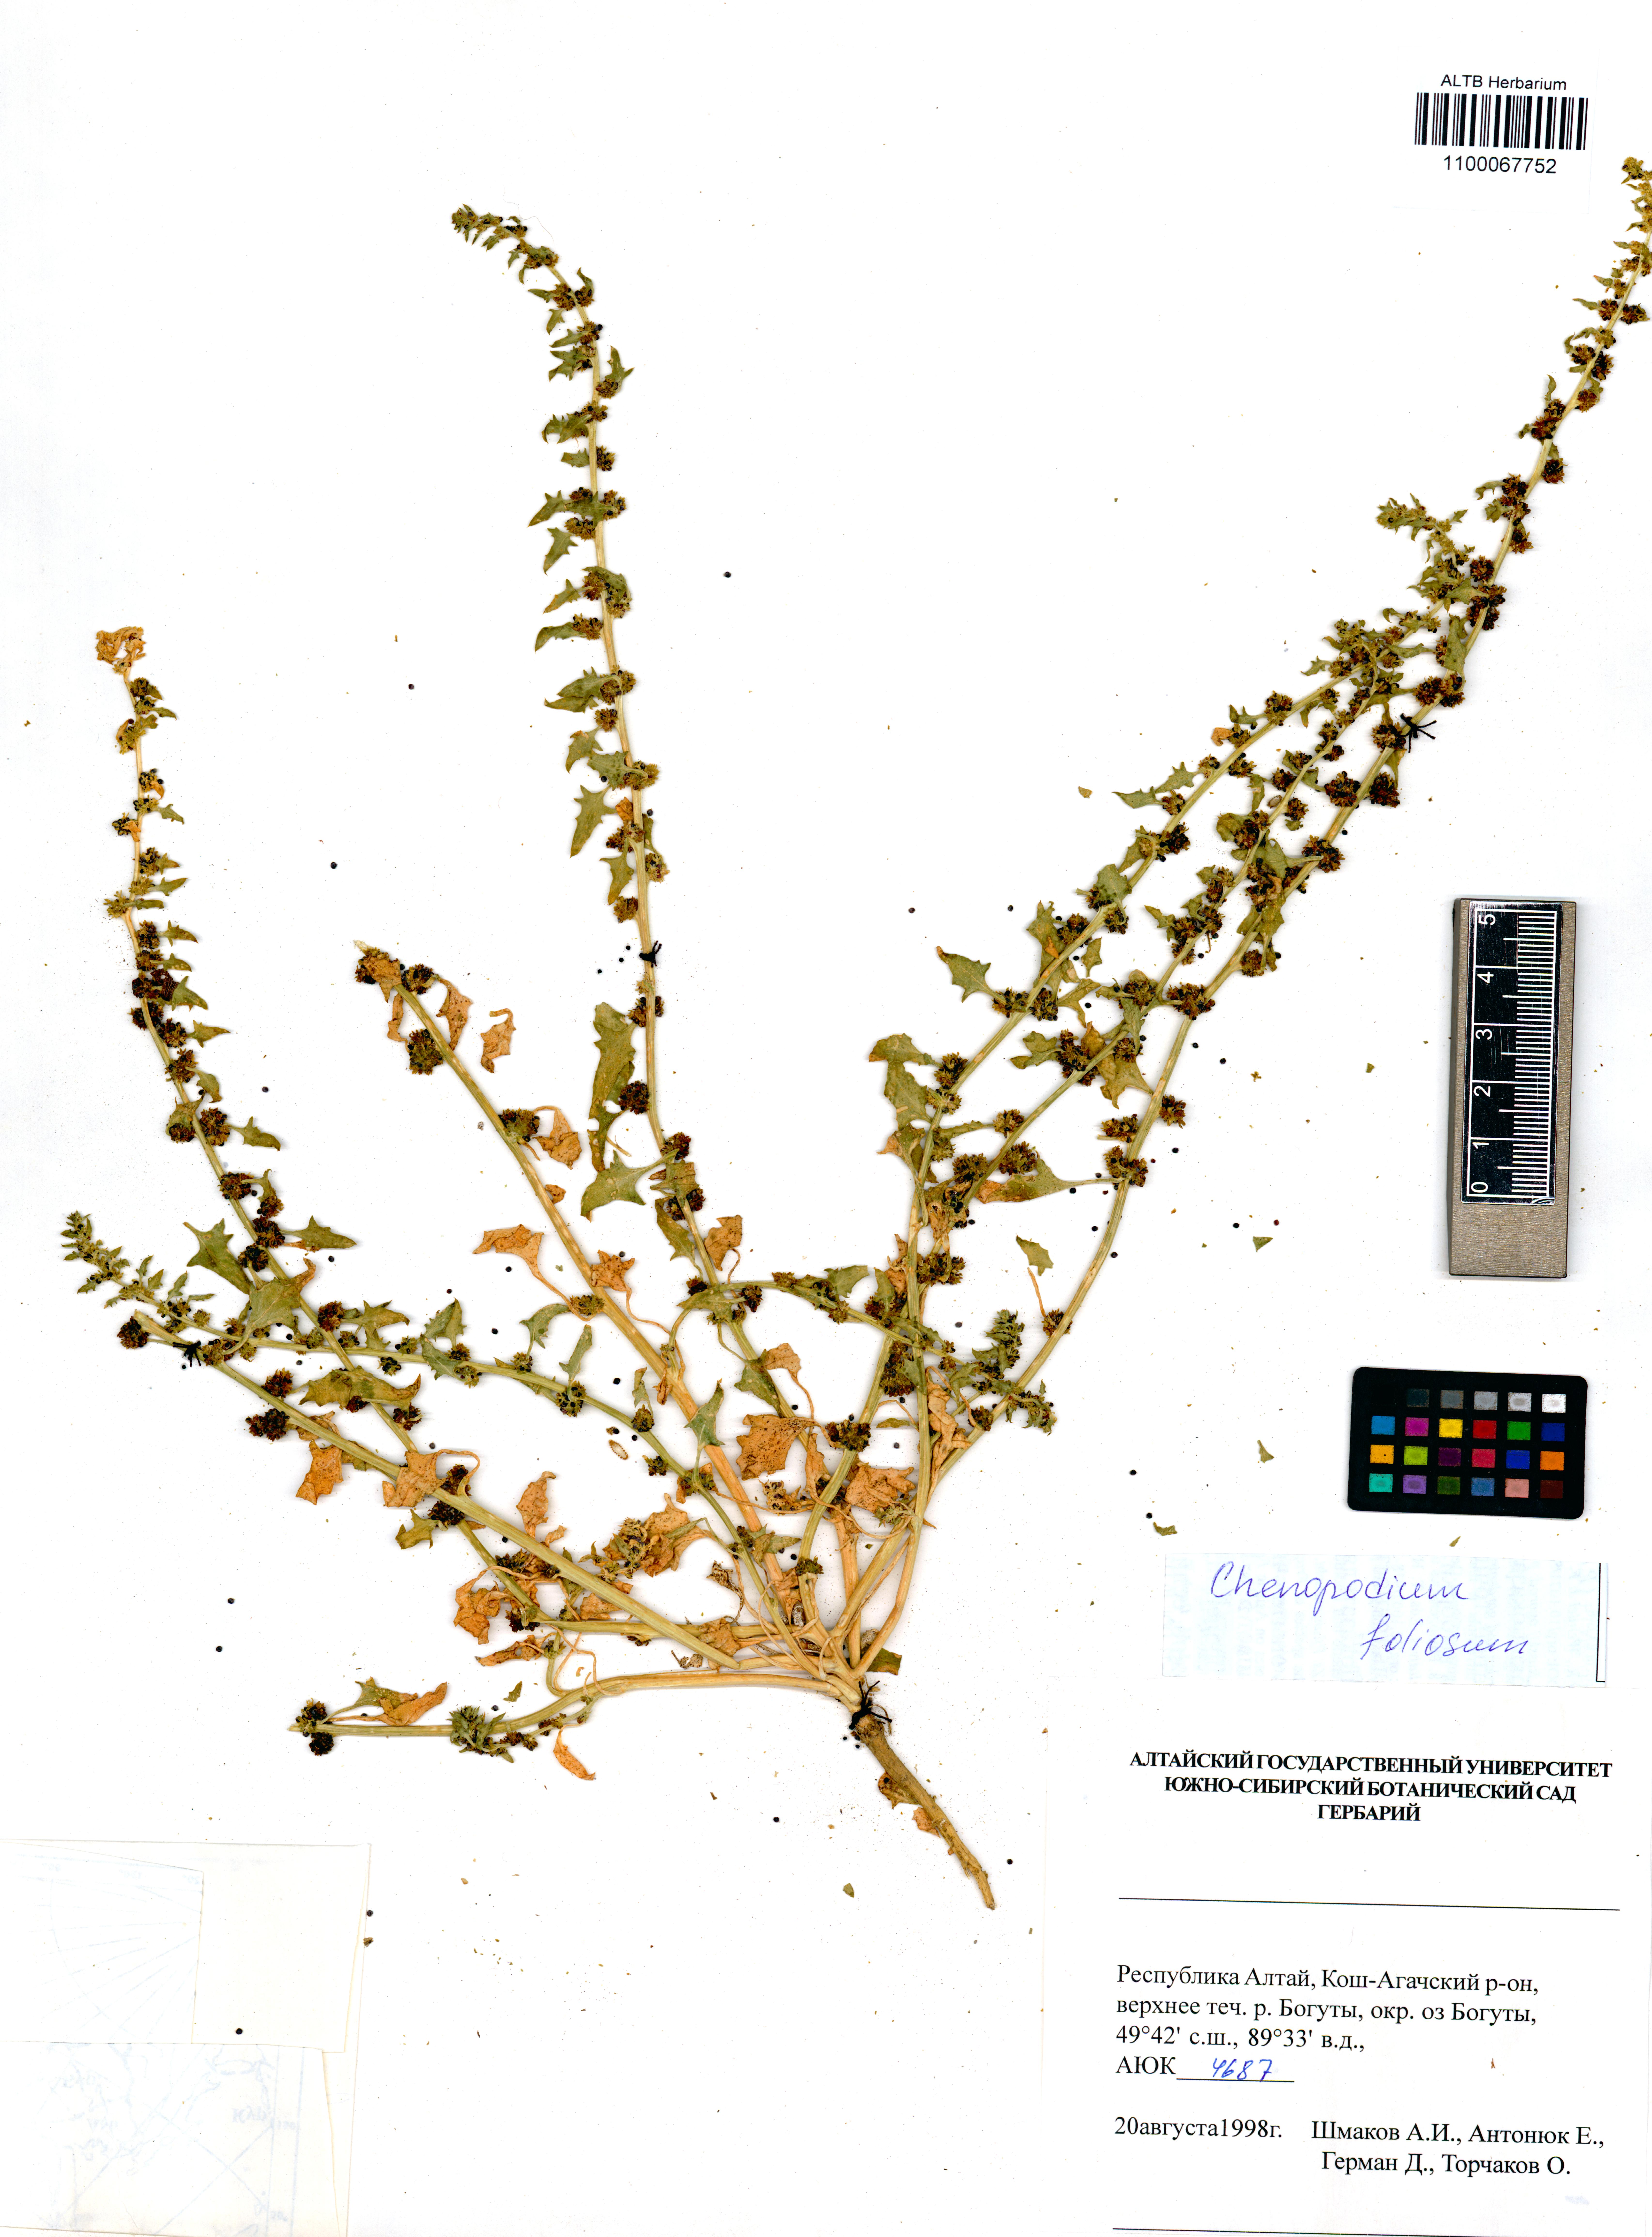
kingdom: Plantae
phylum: Tracheophyta
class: Magnoliopsida
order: Caryophyllales
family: Amaranthaceae
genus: Blitum
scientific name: Blitum virgatum
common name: Strawberry goosefoot
